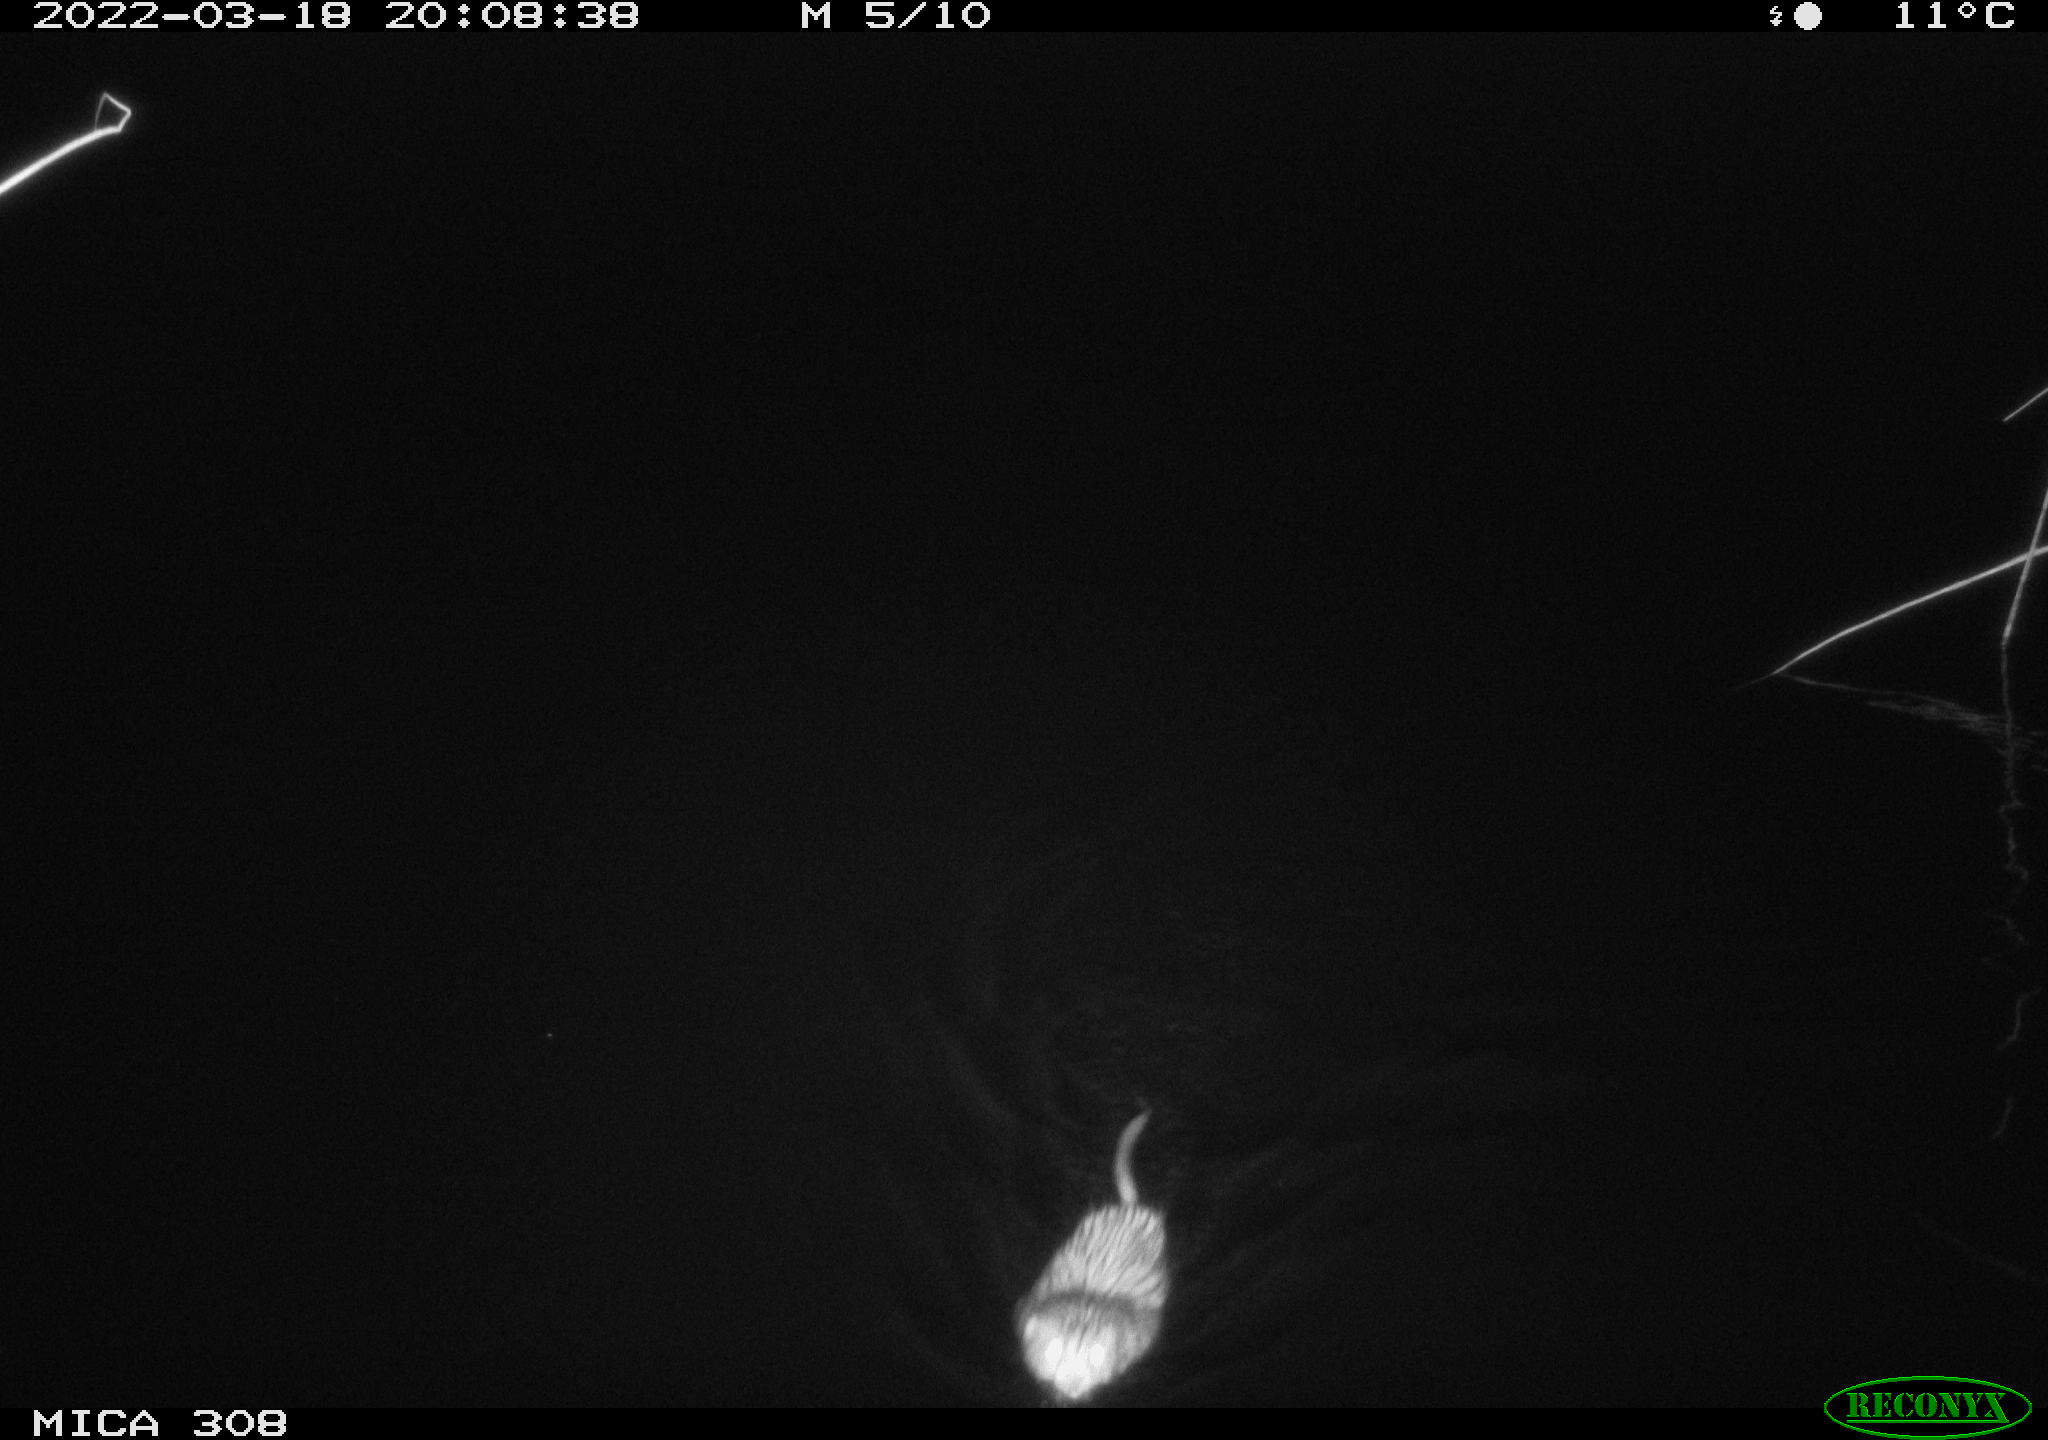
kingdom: Animalia
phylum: Chordata
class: Mammalia
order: Rodentia
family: Cricetidae
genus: Ondatra
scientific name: Ondatra zibethicus
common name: Muskrat
